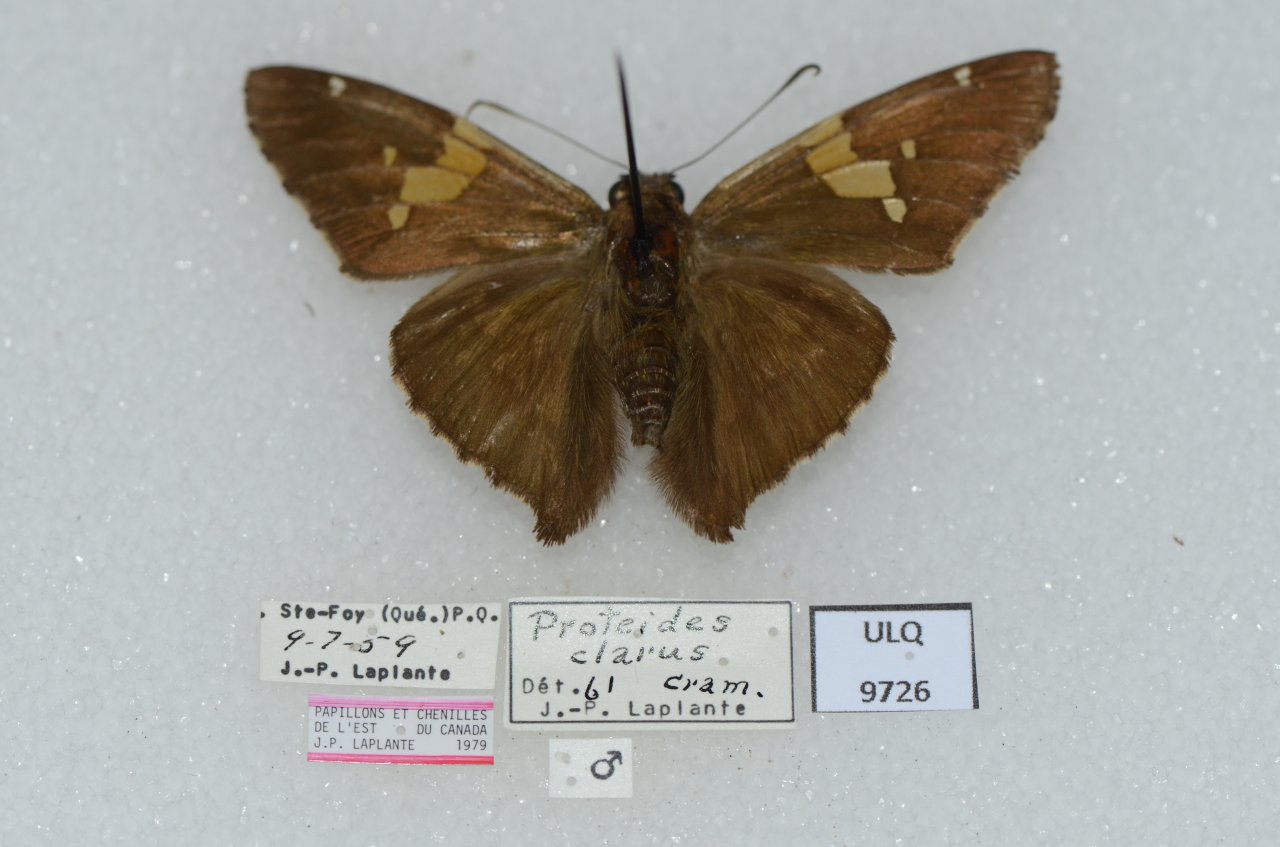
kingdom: Animalia
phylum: Arthropoda
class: Insecta
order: Lepidoptera
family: Hesperiidae
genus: Epargyreus
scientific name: Epargyreus clarus
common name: Silver-spotted Skipper
